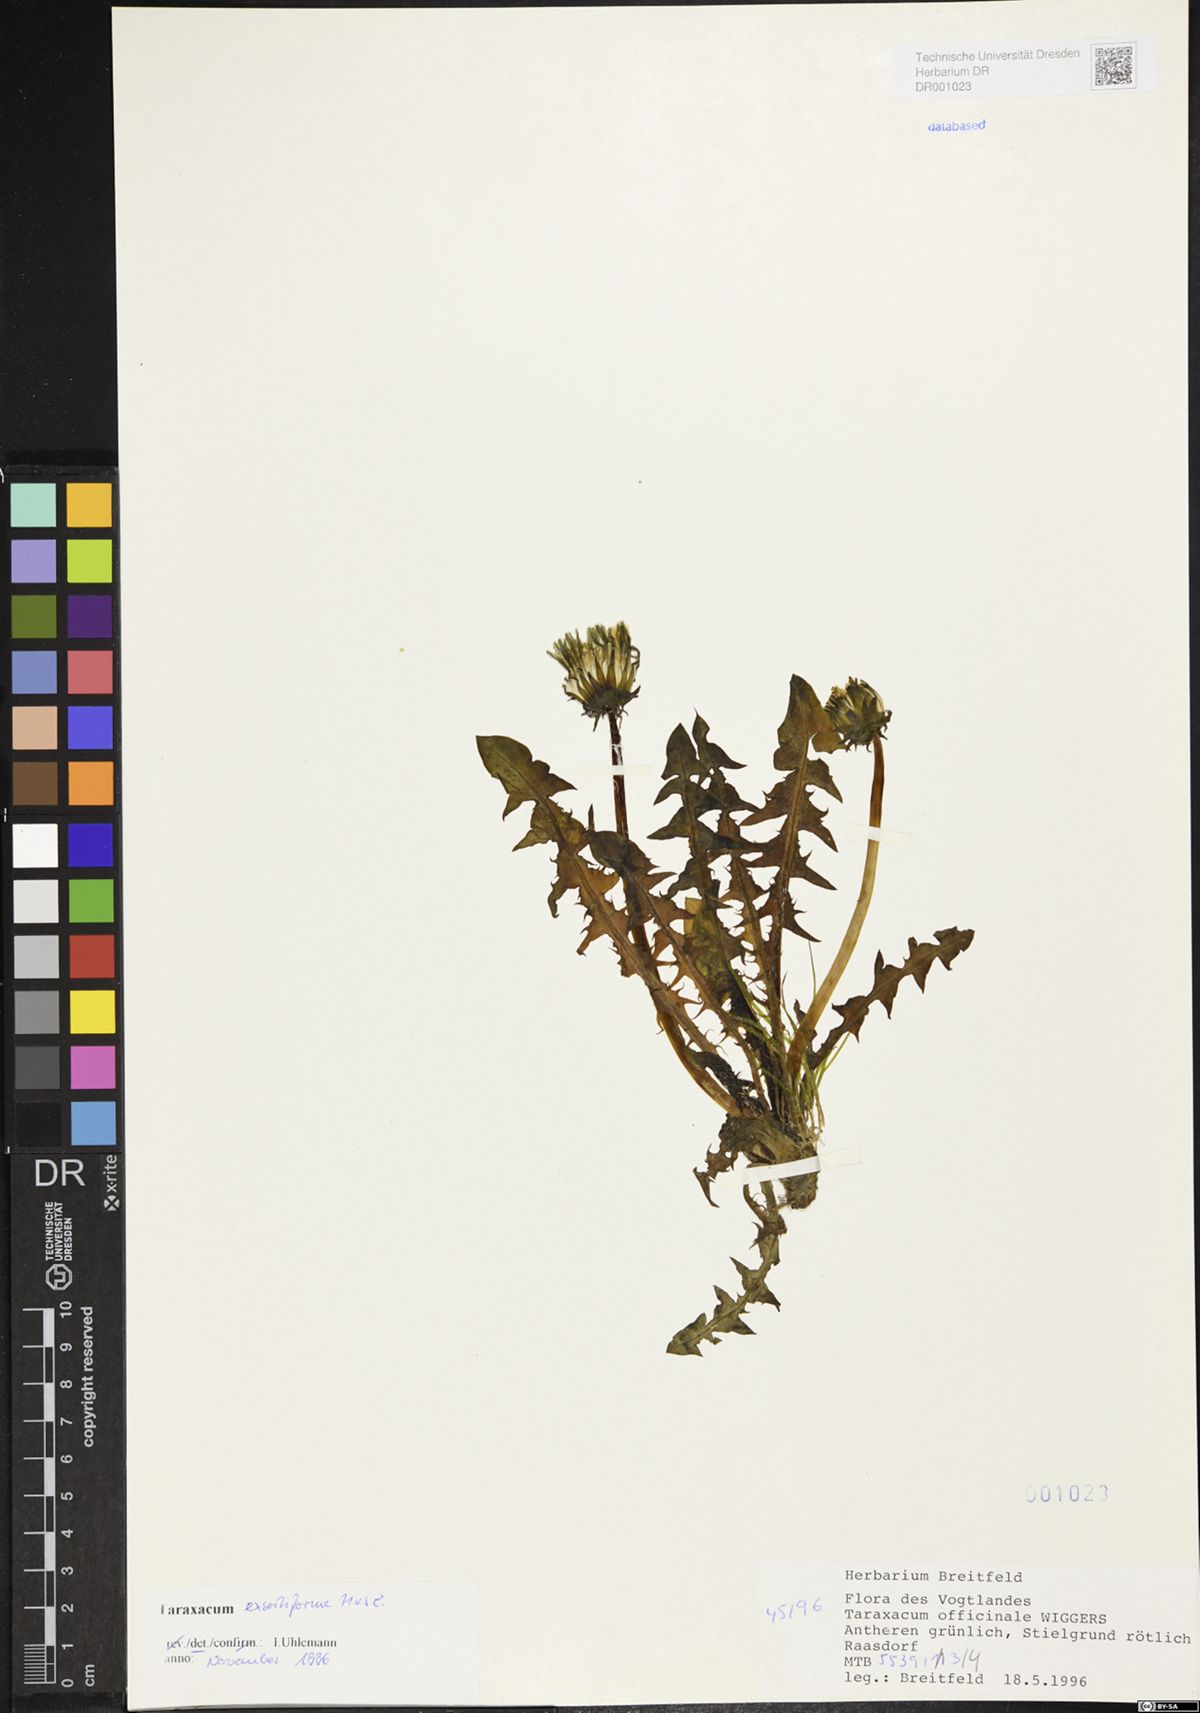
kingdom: Plantae
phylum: Tracheophyta
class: Magnoliopsida
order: Asterales
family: Asteraceae
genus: Taraxacum
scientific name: Taraxacum exsertiforme
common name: Erect-bracted dandelion
